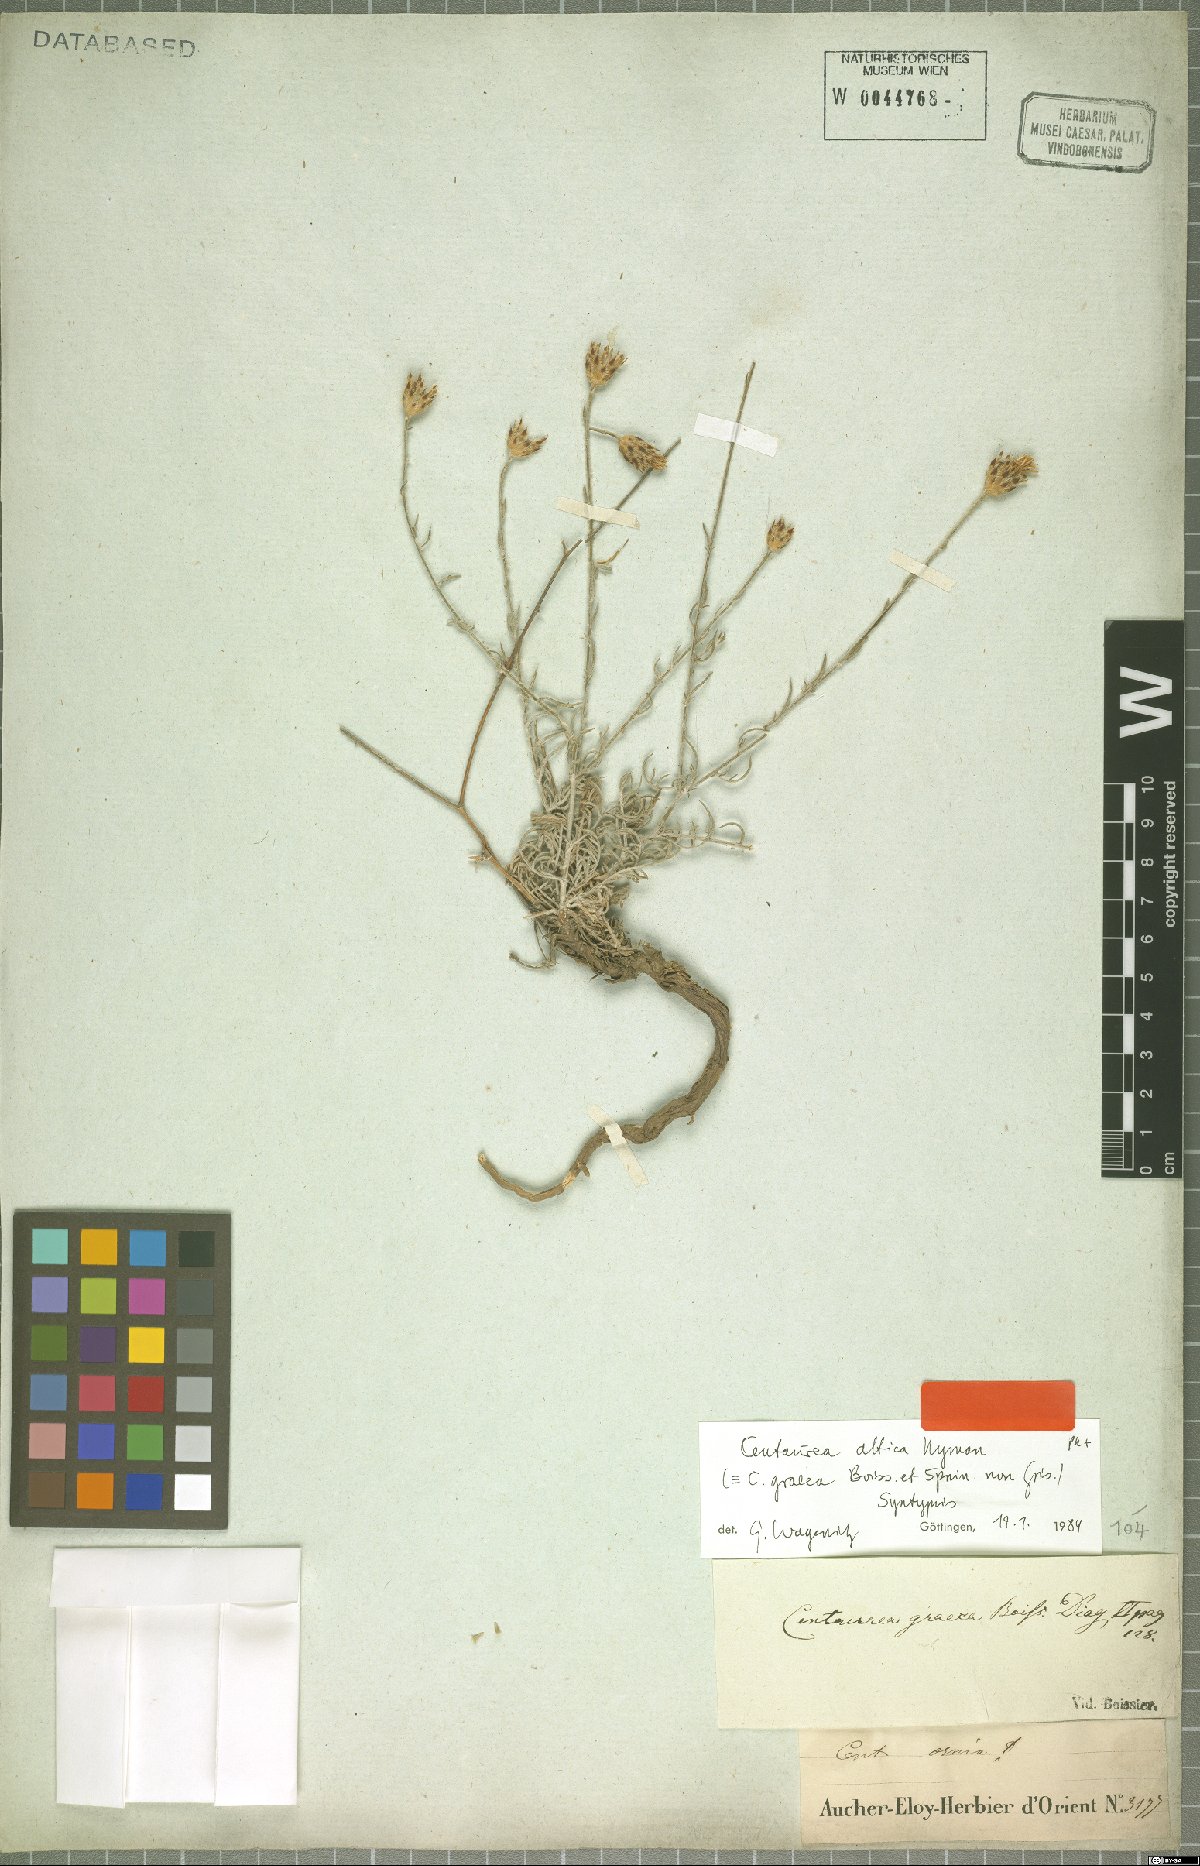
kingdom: Plantae
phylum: Tracheophyta
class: Magnoliopsida
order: Asterales
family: Asteraceae
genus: Centaurea
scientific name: Centaurea attica
